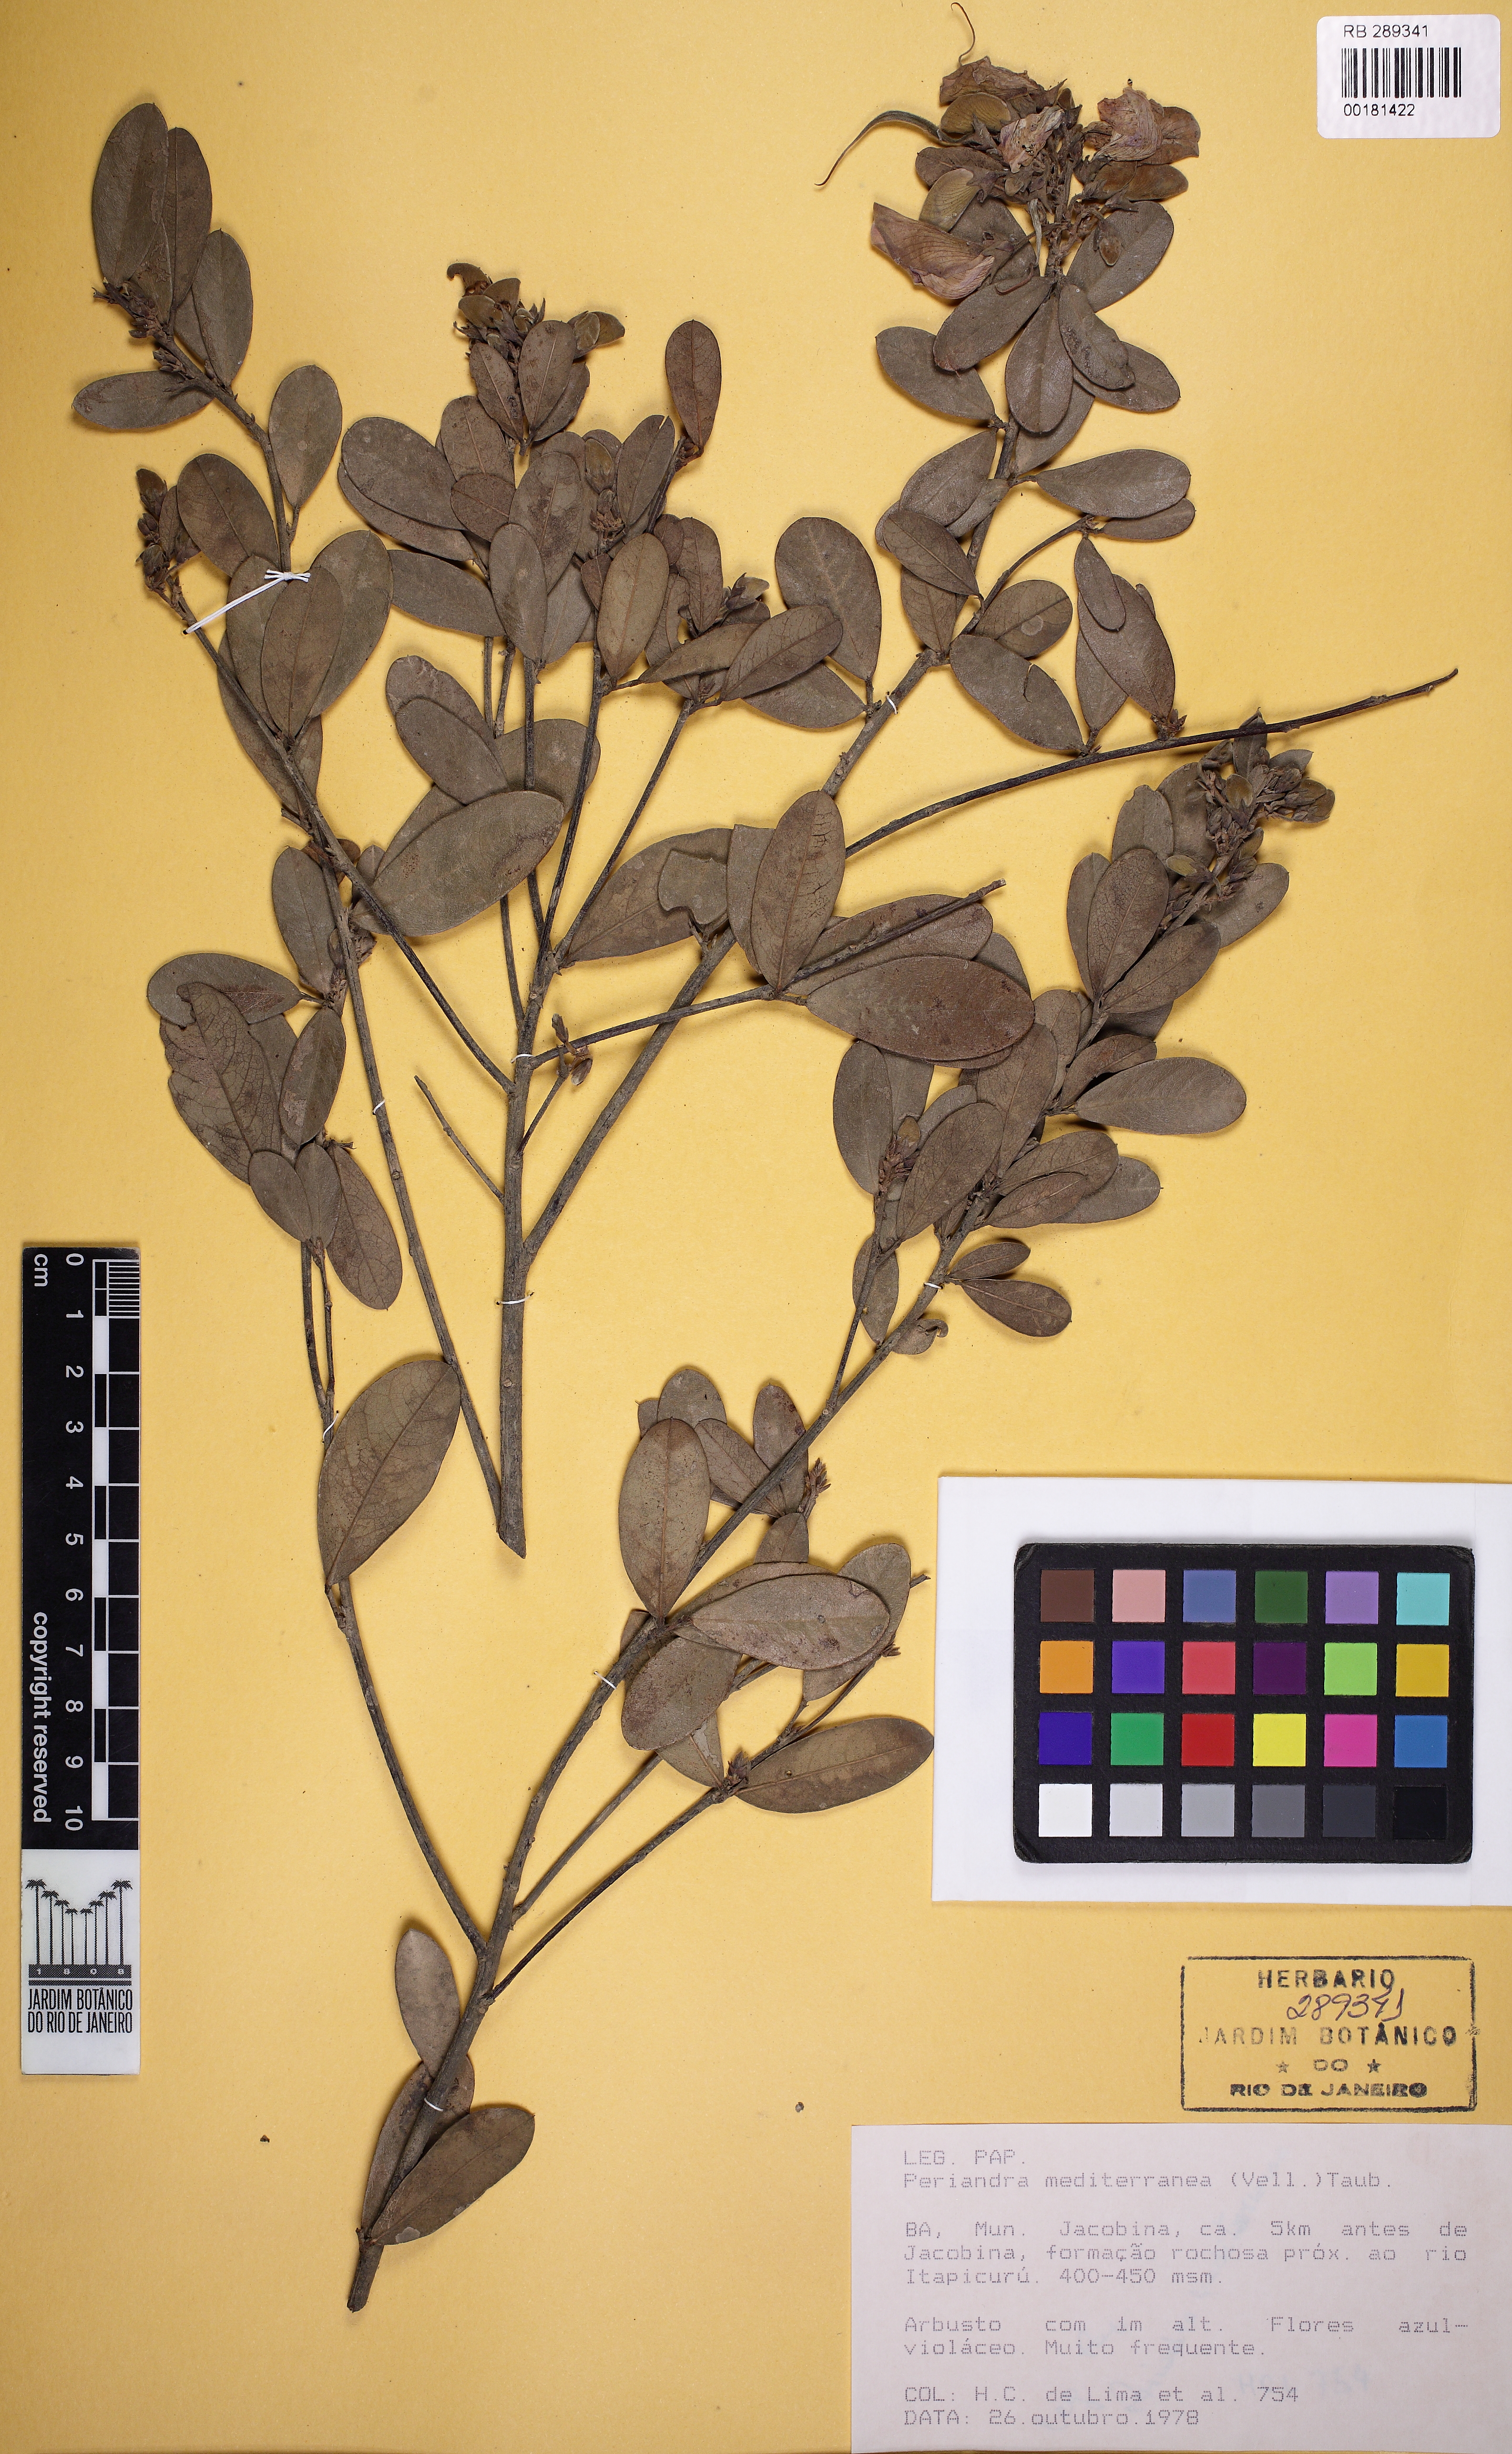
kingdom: Plantae
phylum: Tracheophyta
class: Magnoliopsida
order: Fabales
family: Fabaceae
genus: Periandra
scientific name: Periandra mediterranea
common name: Brazilian licorice
